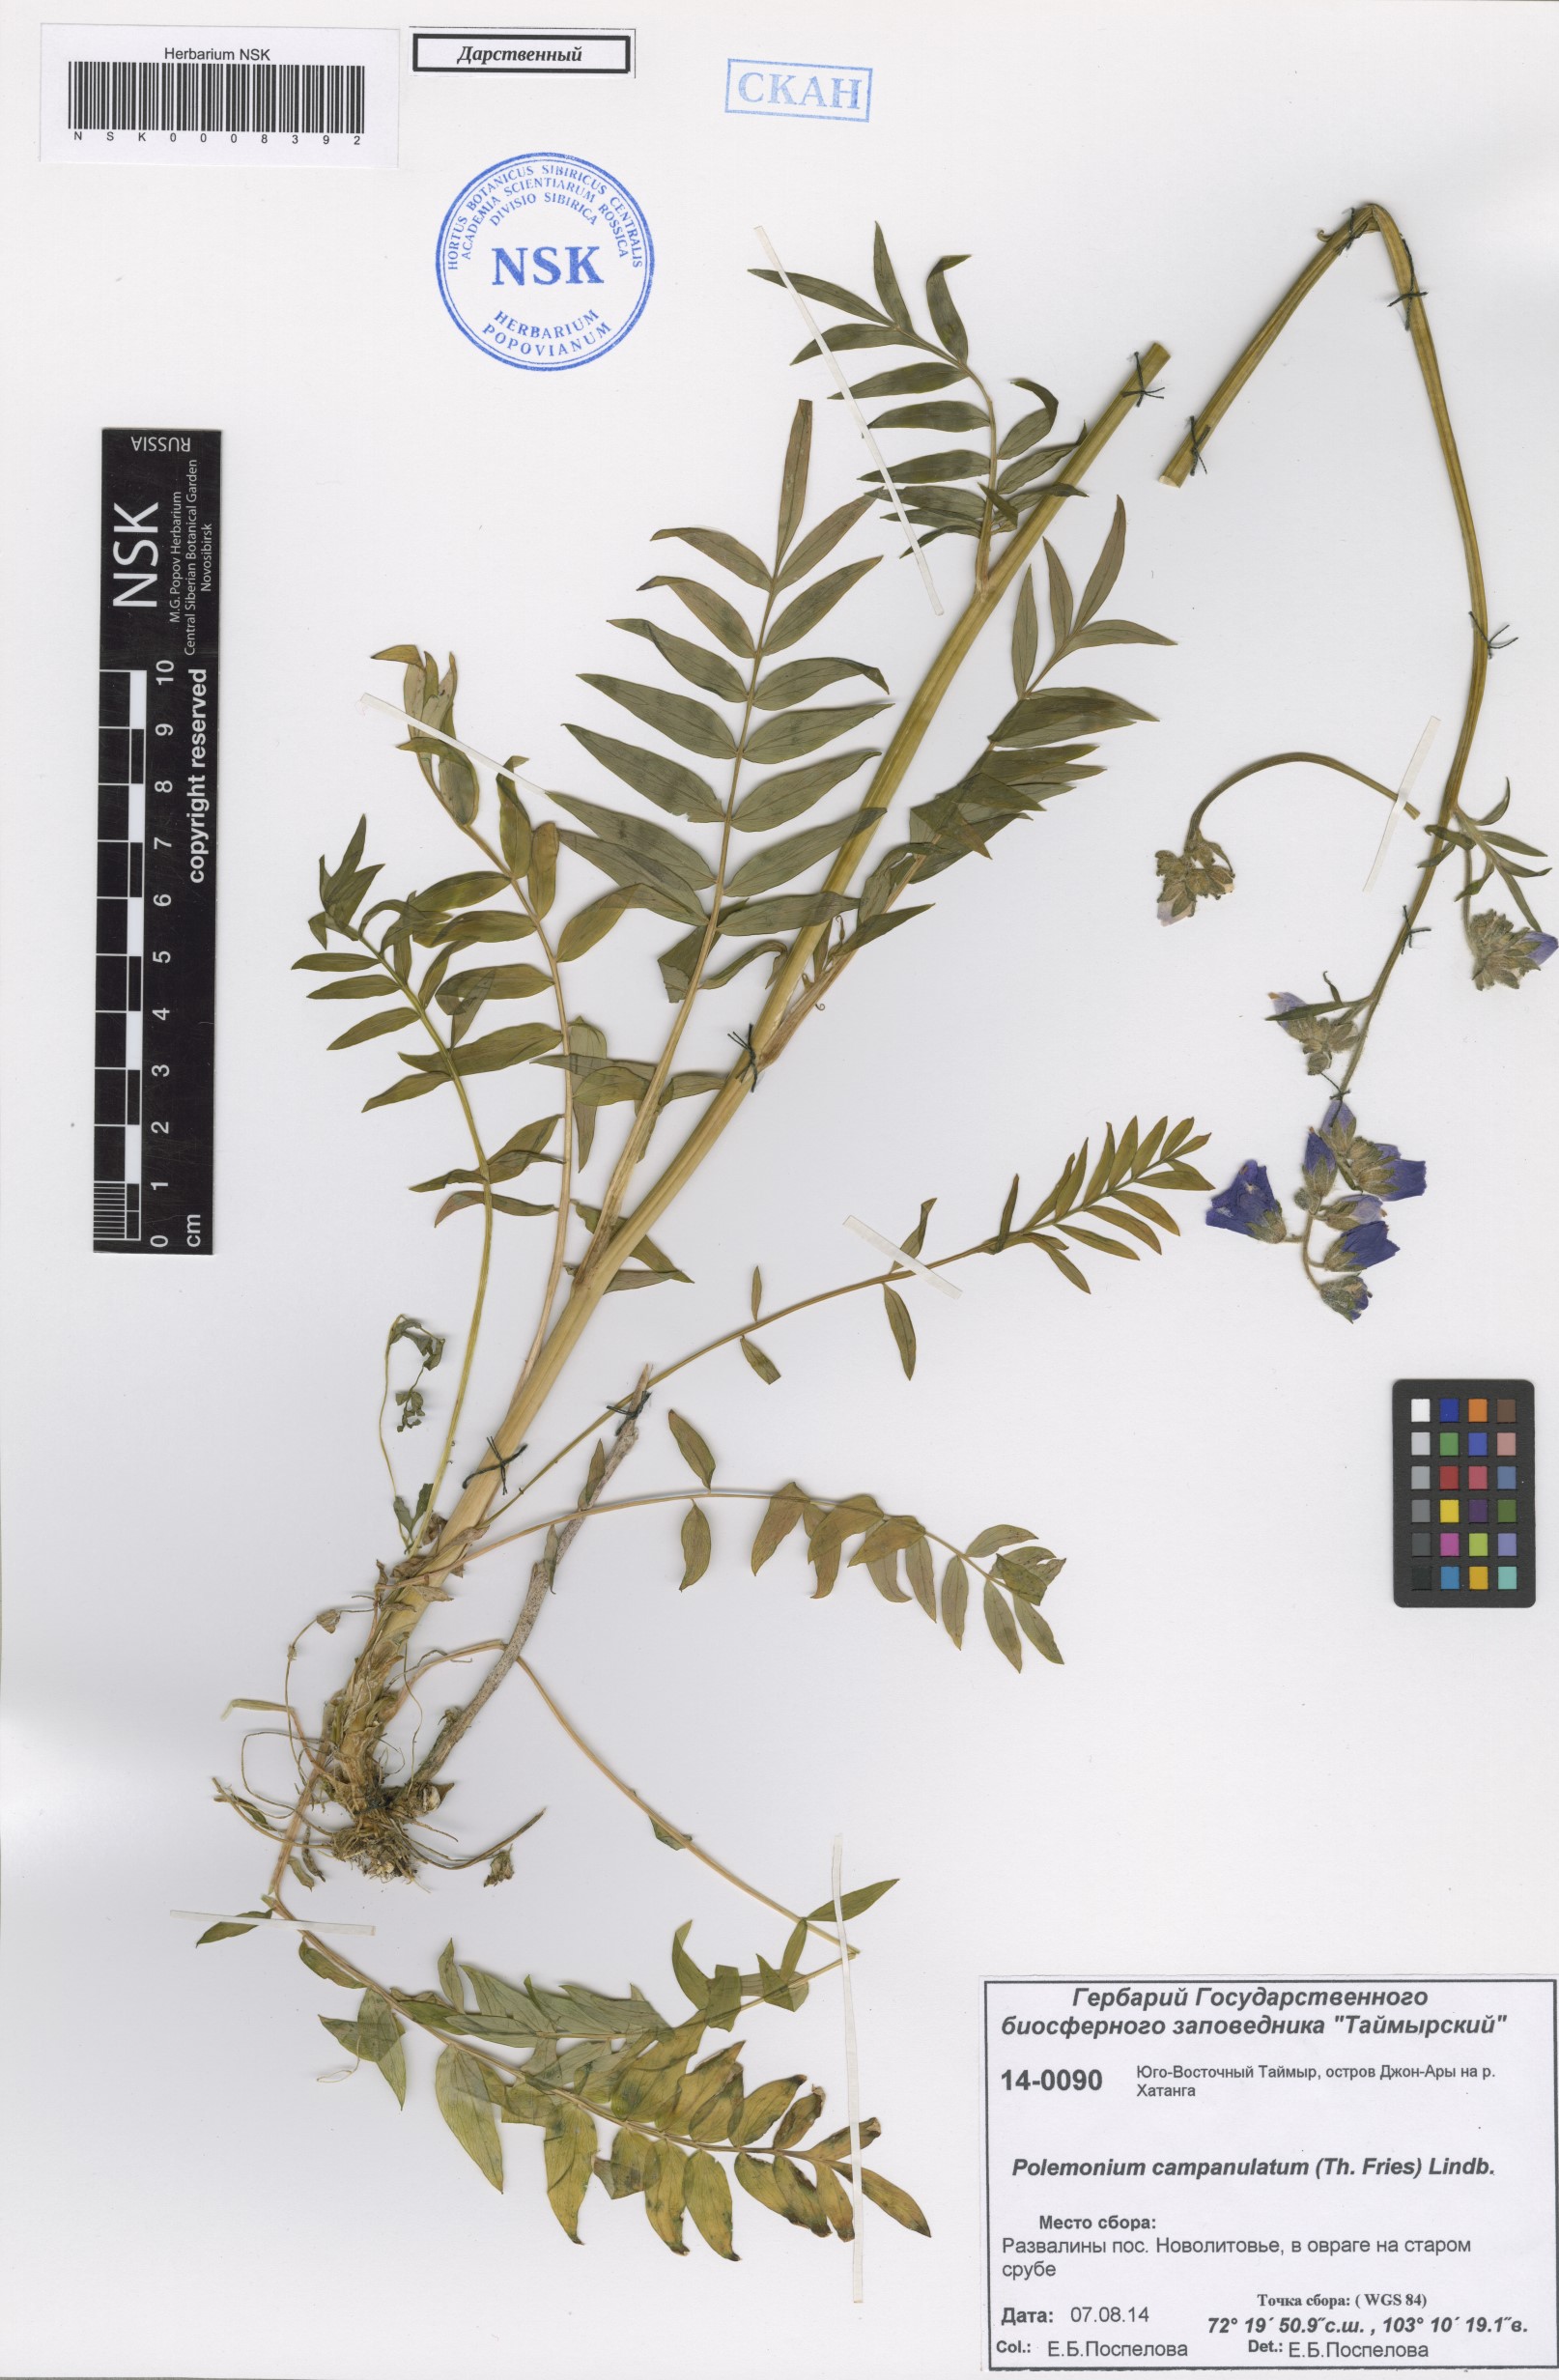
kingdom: Plantae
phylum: Tracheophyta
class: Magnoliopsida
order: Ericales
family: Polemoniaceae
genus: Polemonium
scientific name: Polemonium
